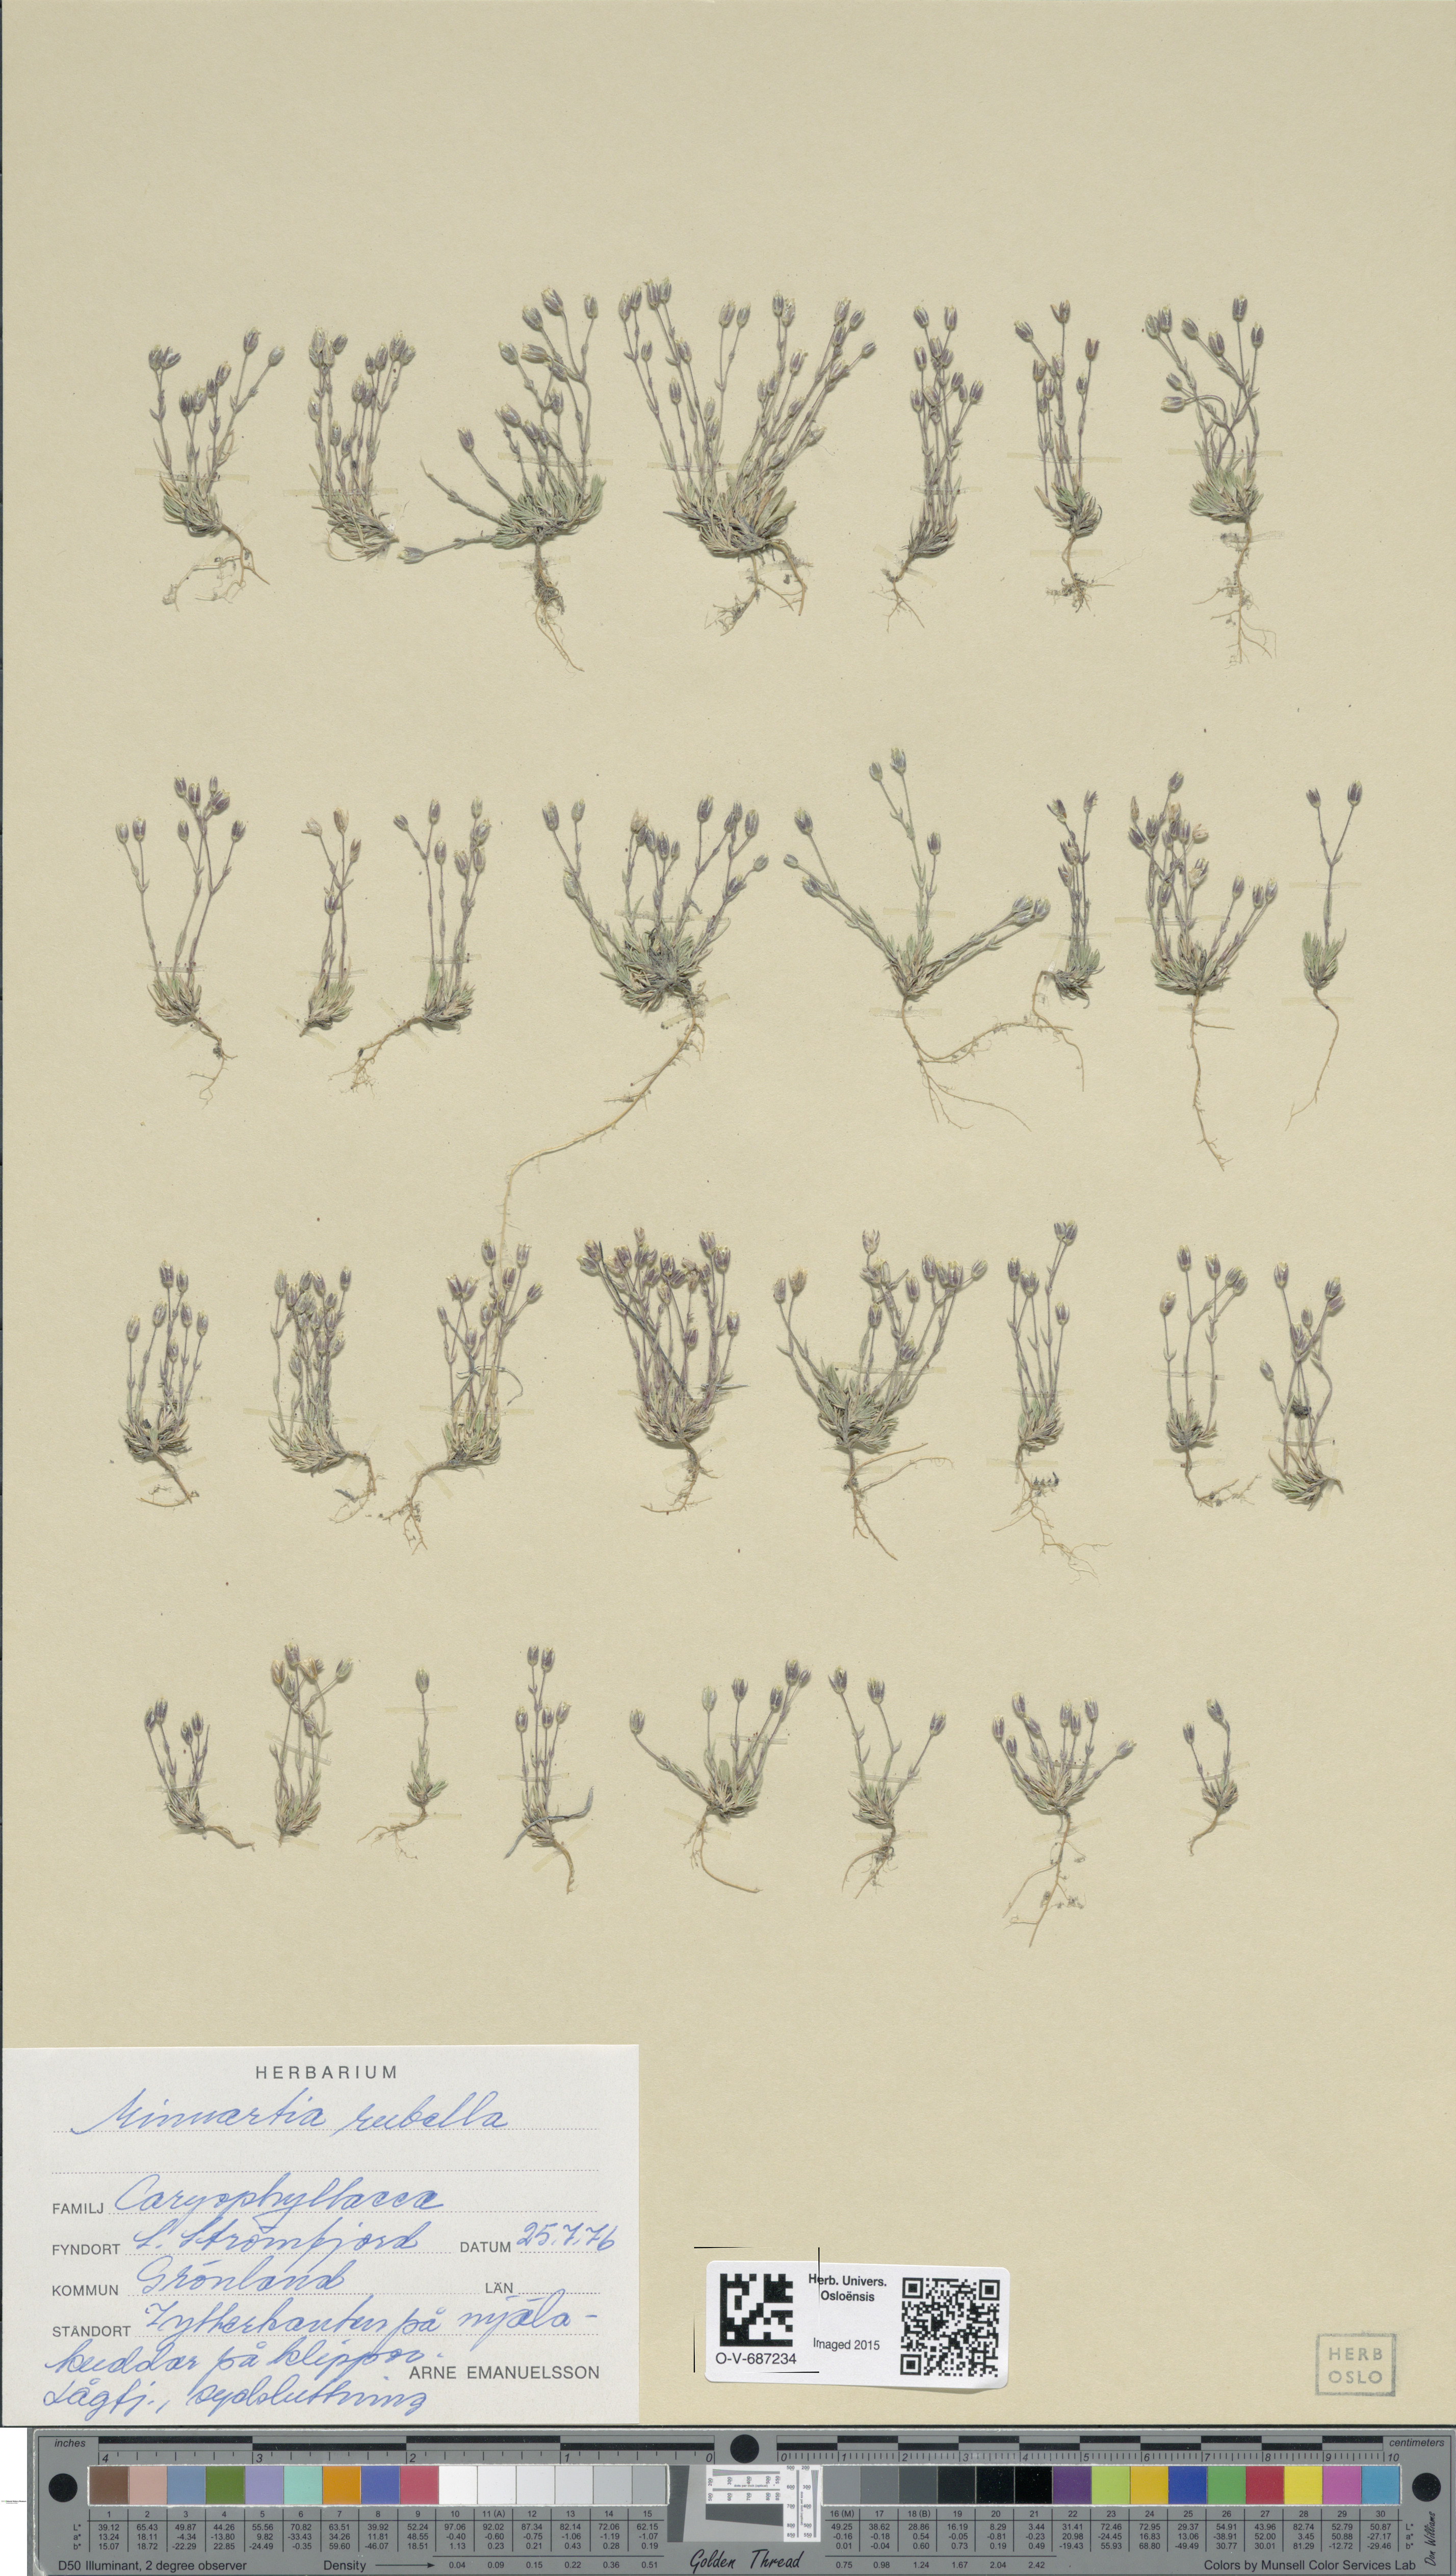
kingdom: Plantae
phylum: Tracheophyta
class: Magnoliopsida
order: Caryophyllales
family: Caryophyllaceae
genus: Sabulina
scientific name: Sabulina rubella
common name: Beautiful sandwort
